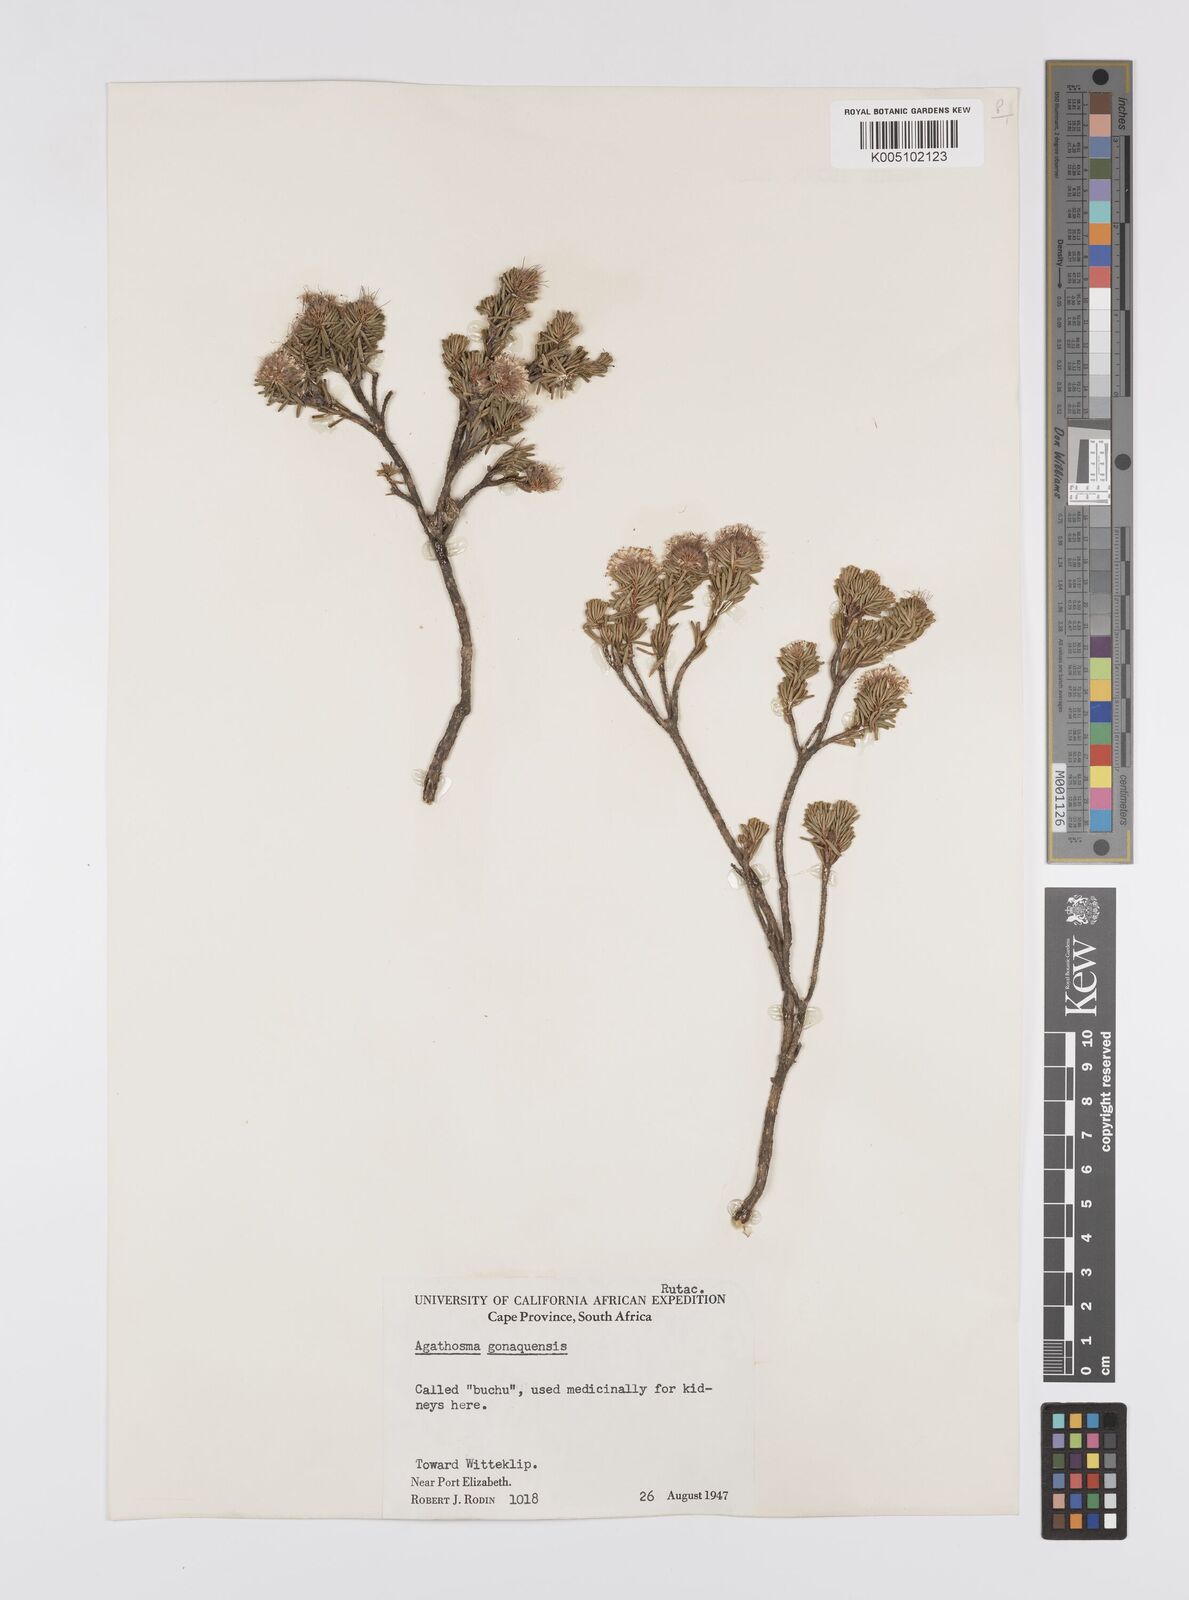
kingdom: Plantae
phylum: Tracheophyta
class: Magnoliopsida
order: Sapindales
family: Rutaceae
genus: Agathosma
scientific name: Agathosma gonaquensis
